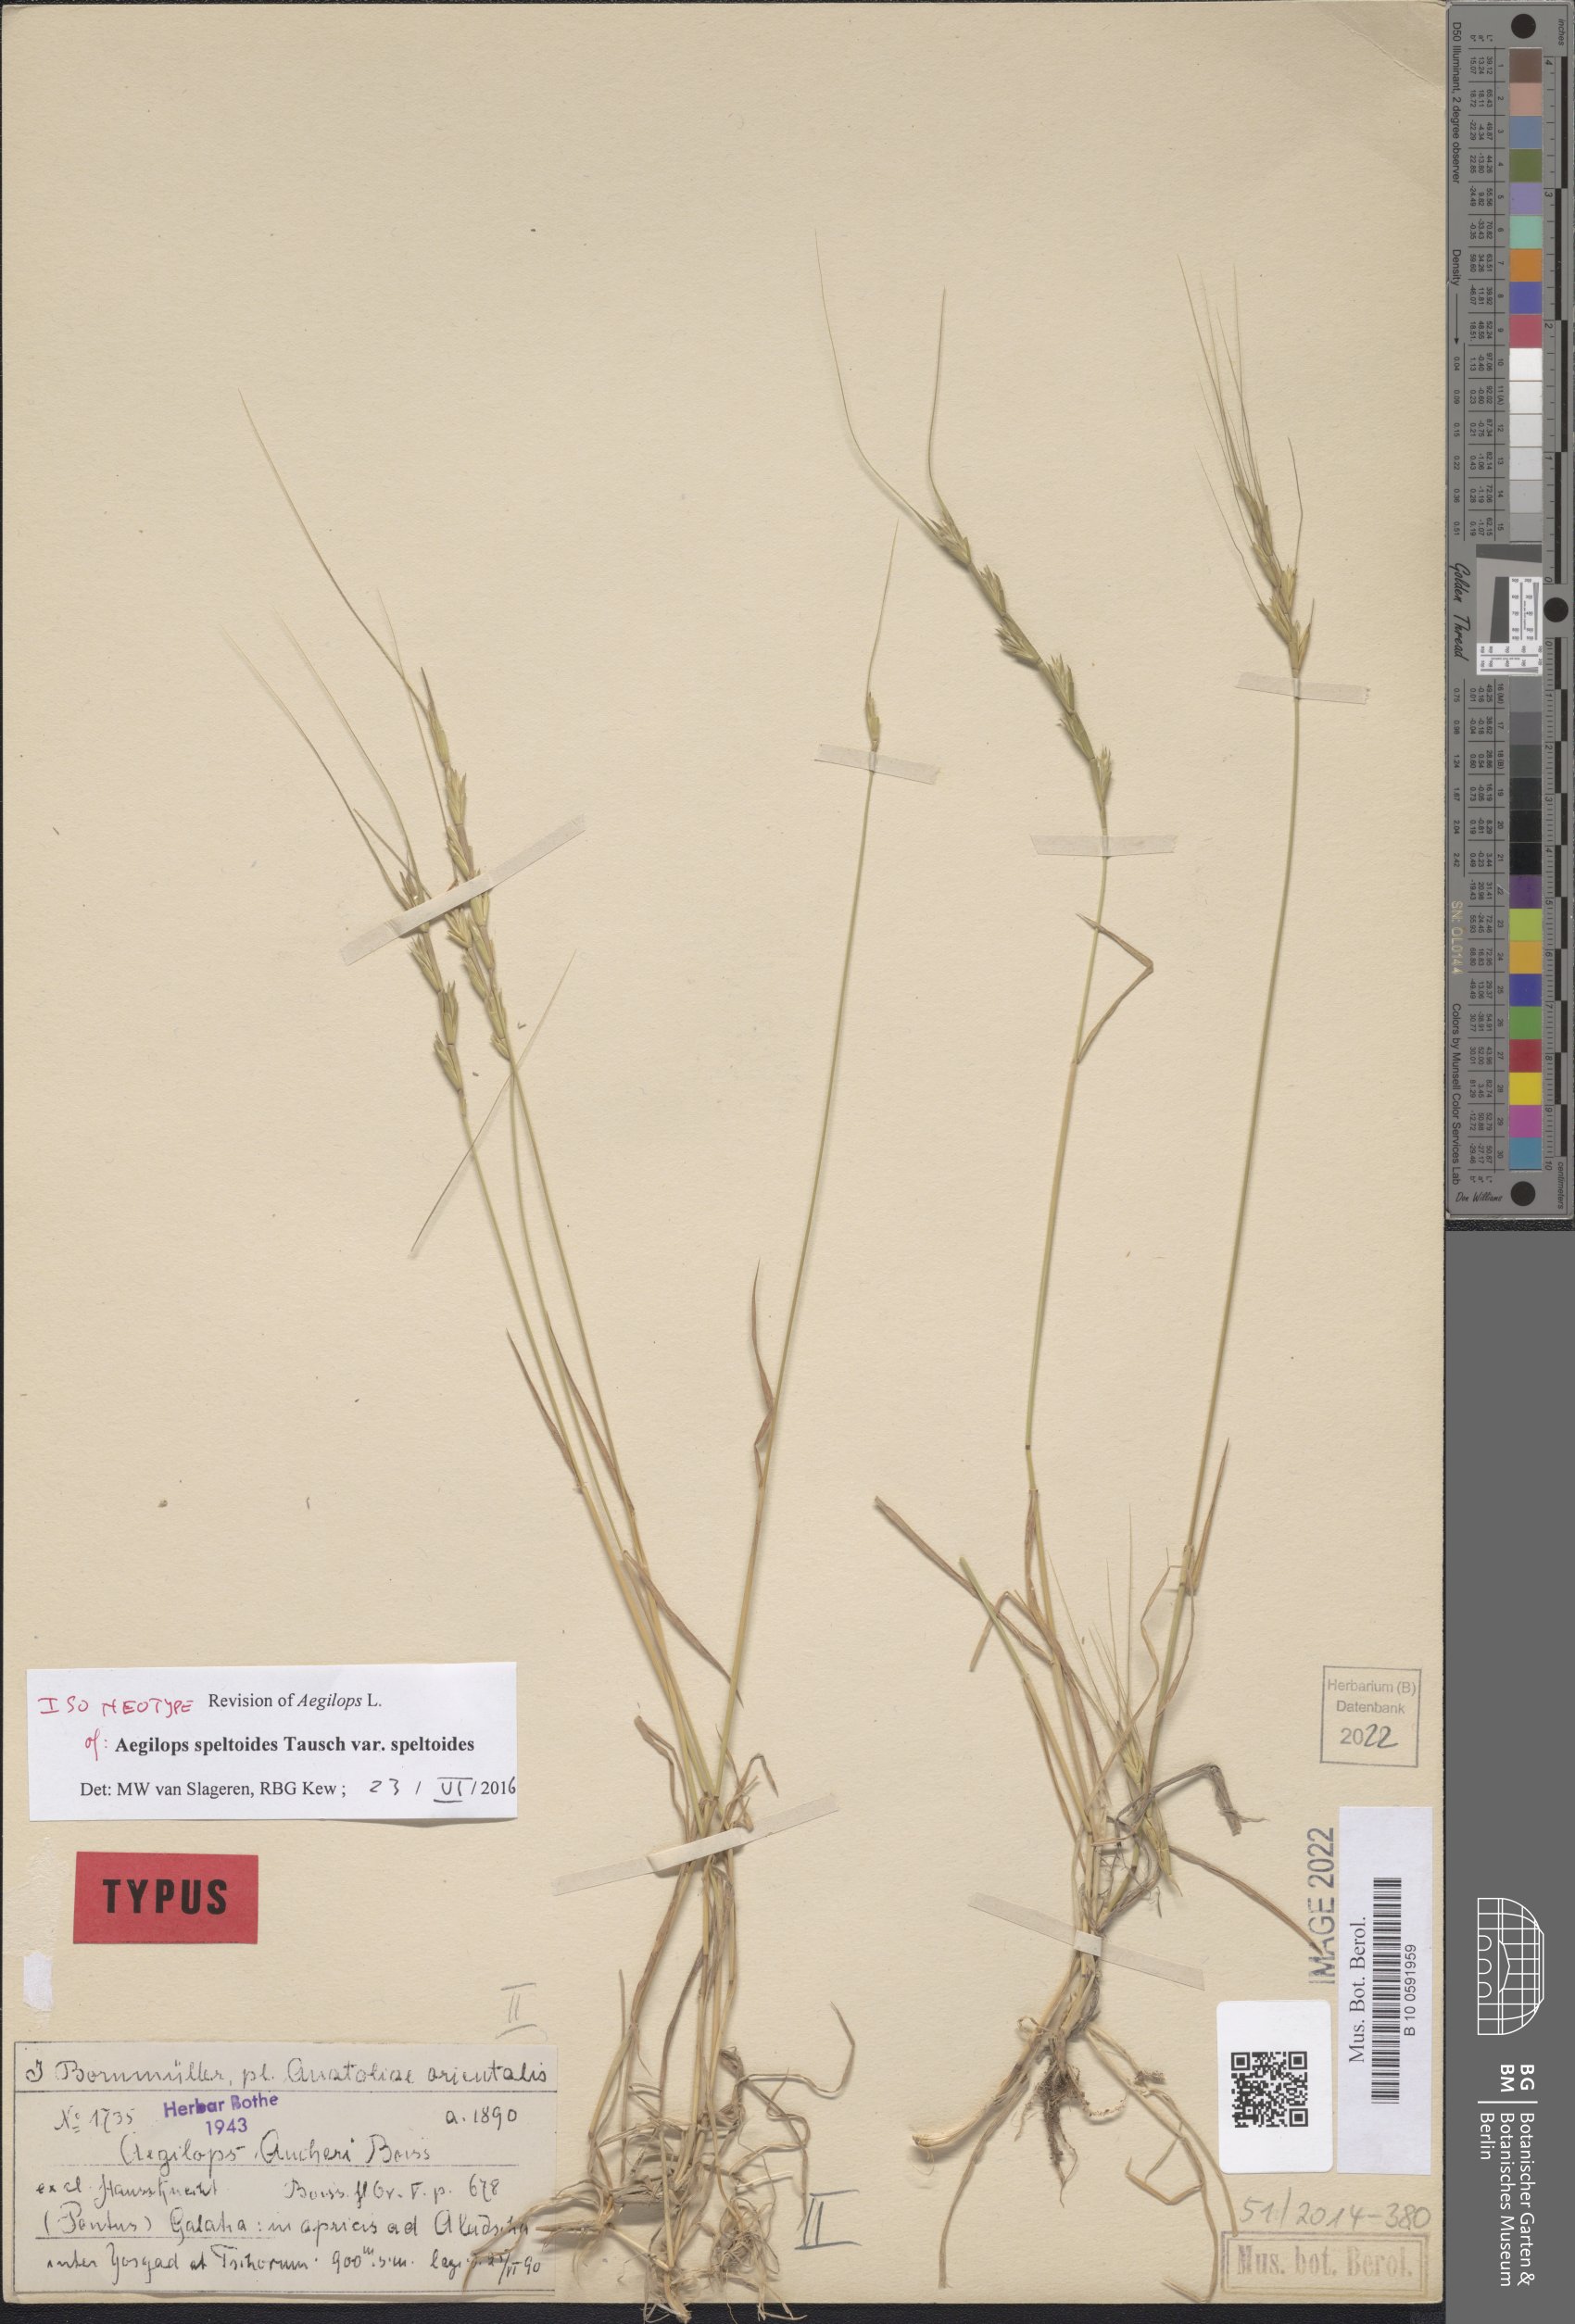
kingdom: Plantae
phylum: Tracheophyta
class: Liliopsida
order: Poales
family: Poaceae
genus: Aegilops
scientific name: Aegilops speltoides
